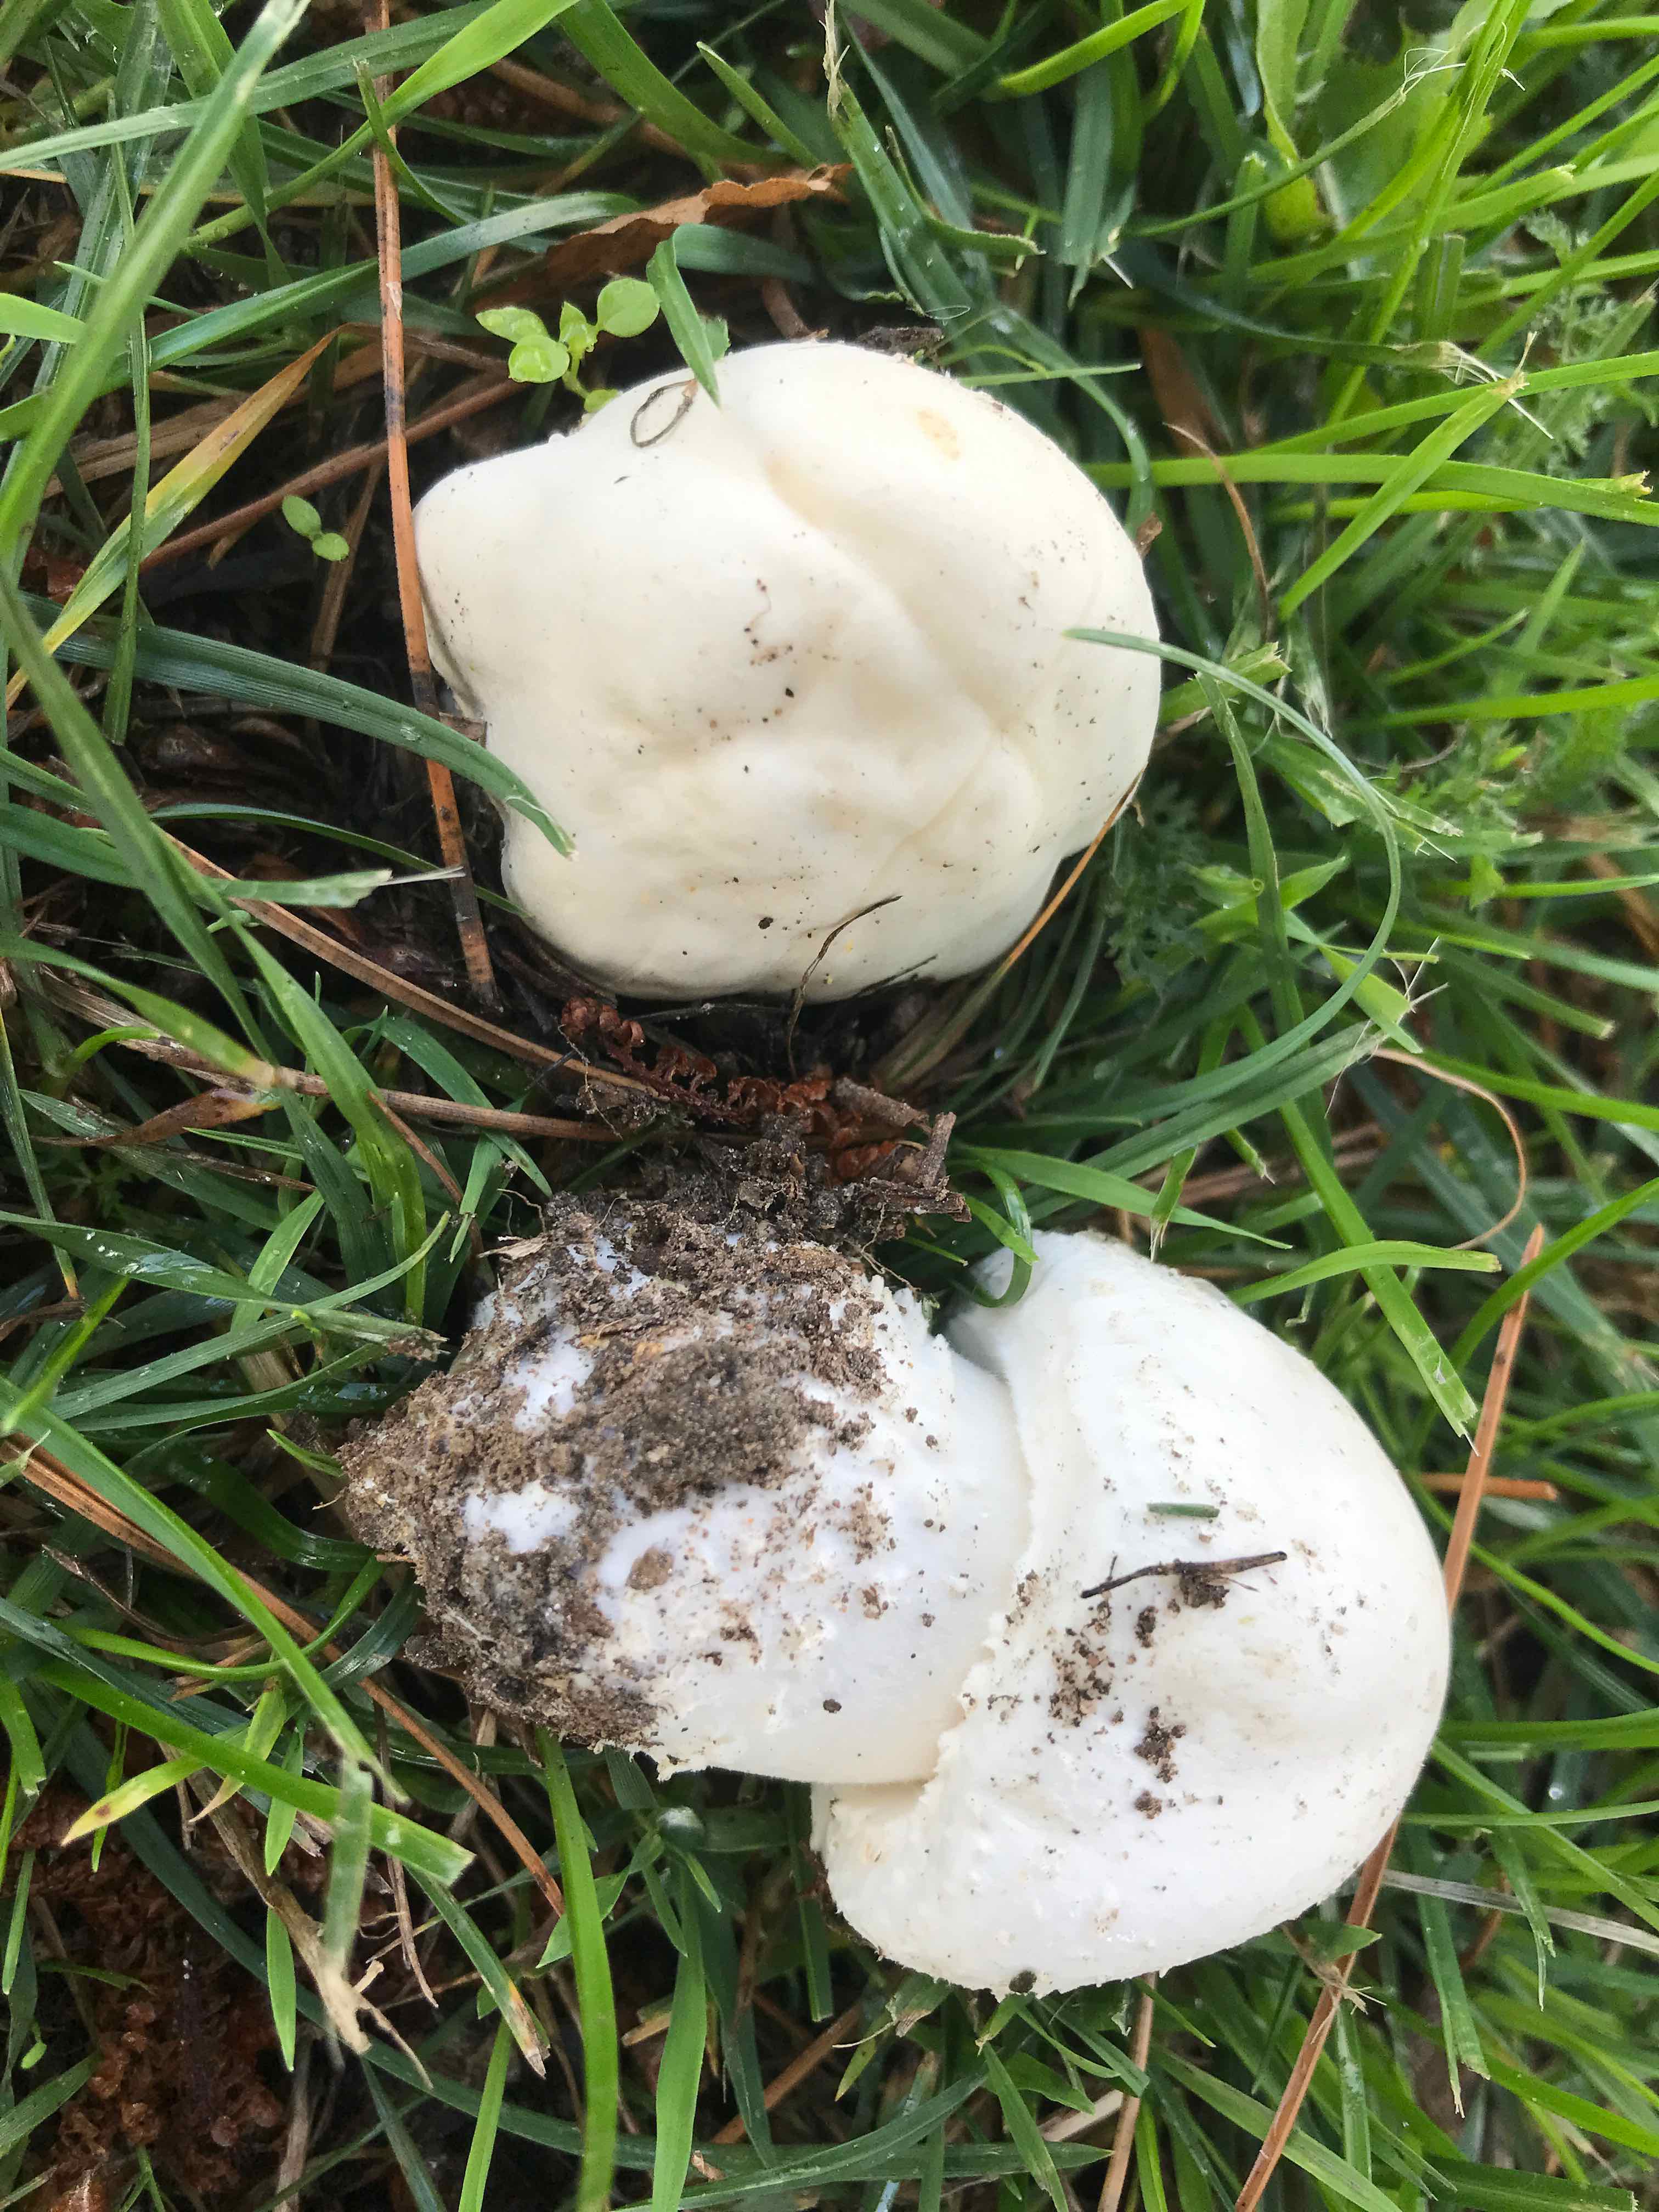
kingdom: Fungi
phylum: Basidiomycota
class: Agaricomycetes
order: Agaricales
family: Agaricaceae
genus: Agaricus
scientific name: Agaricus arvensis
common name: ager-champignon
